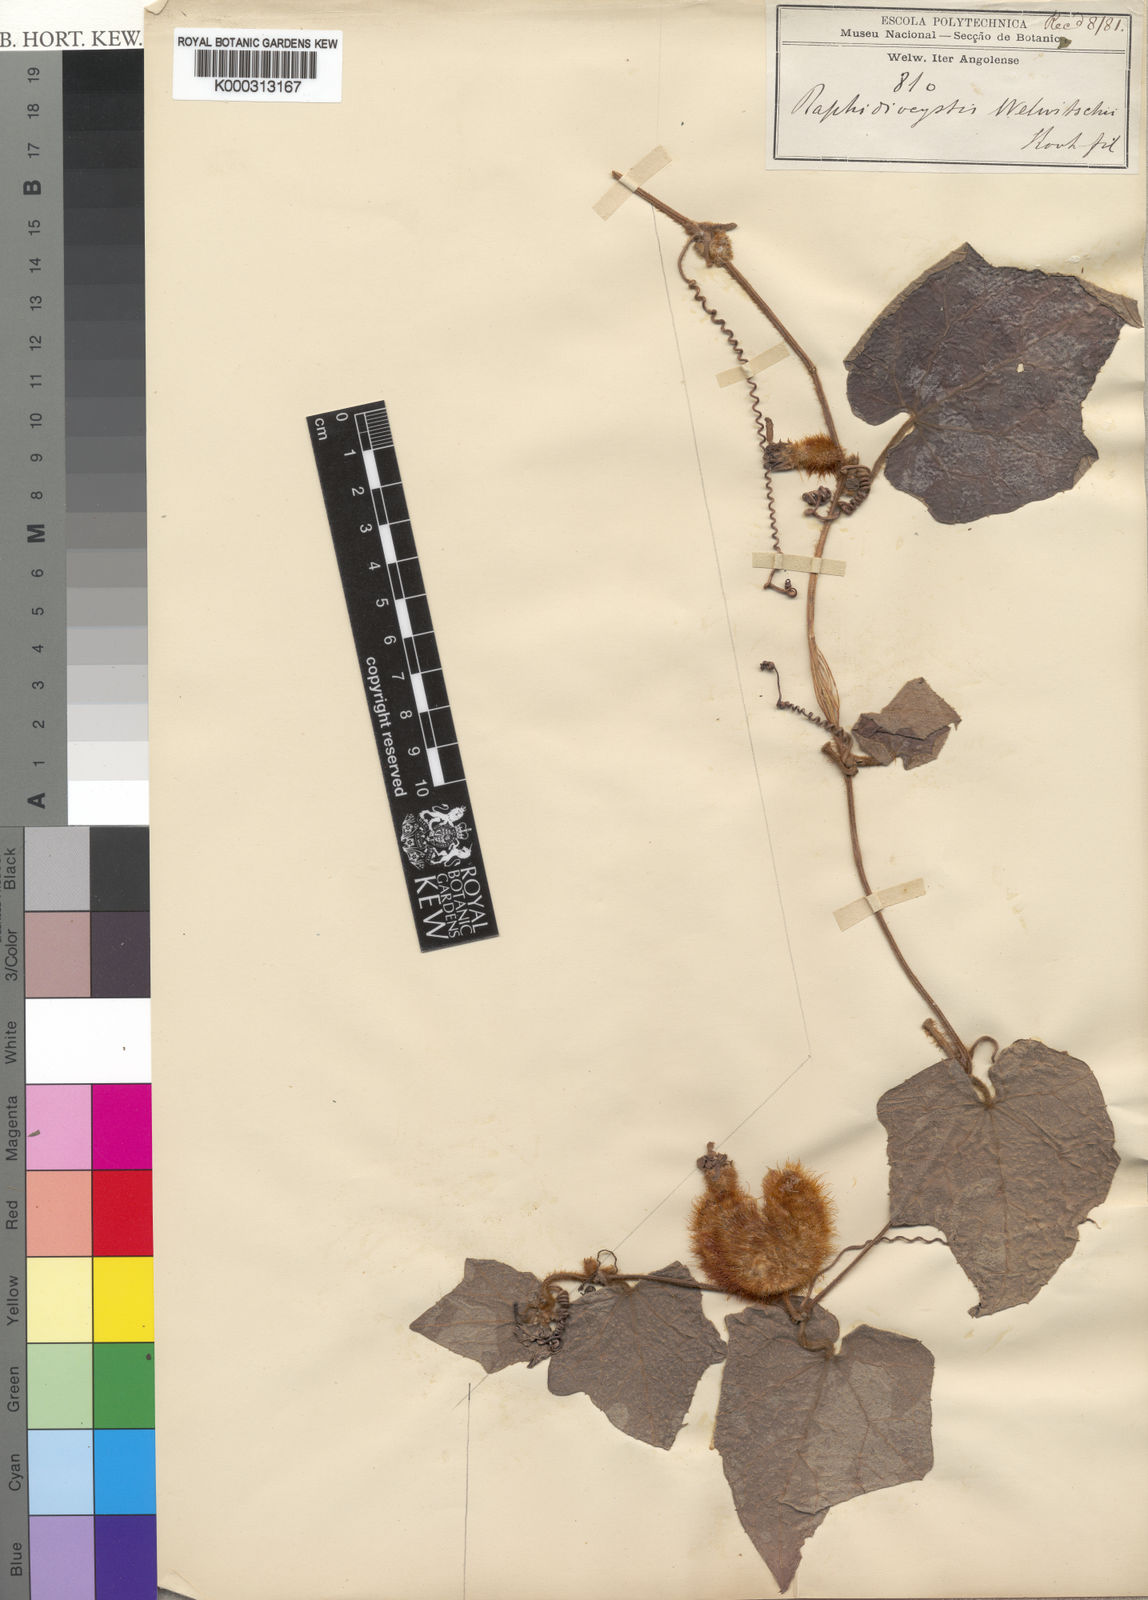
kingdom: Plantae
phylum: Tracheophyta
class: Magnoliopsida
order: Cucurbitales
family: Cucurbitaceae
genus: Raphidiocystis
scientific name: Raphidiocystis chrysocoma
